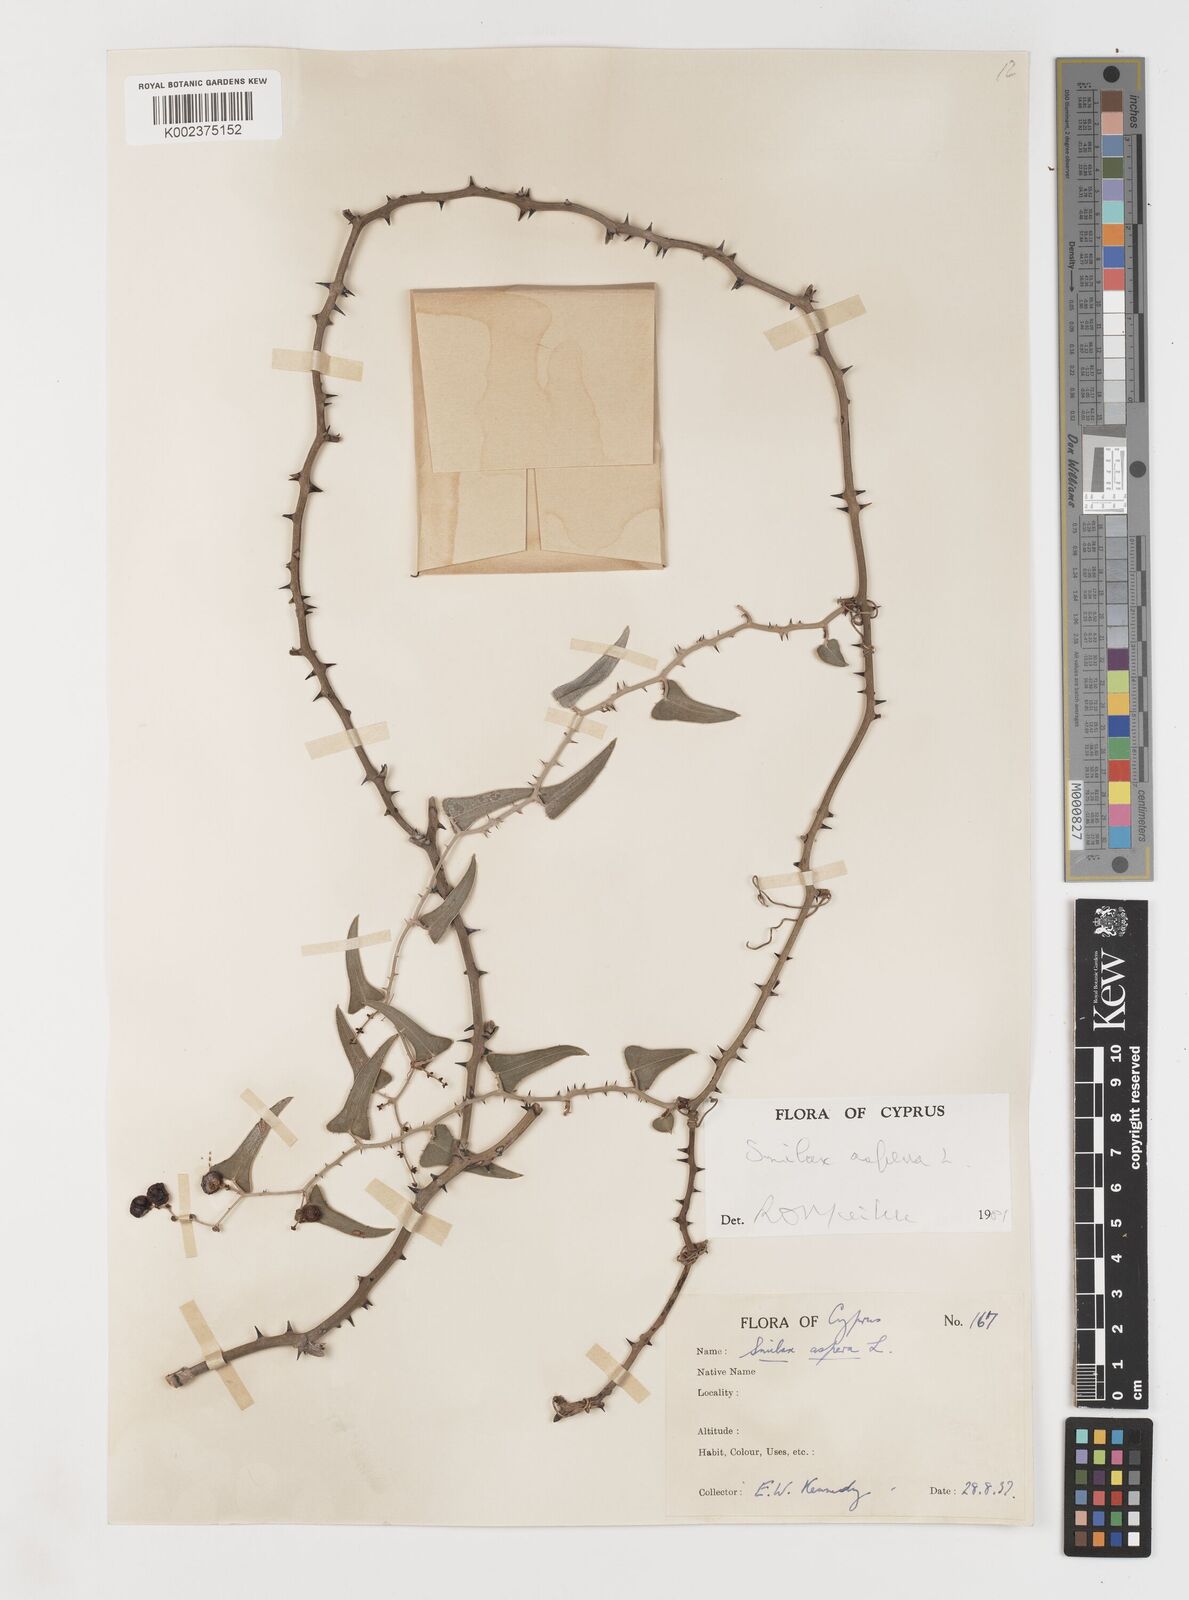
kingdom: Plantae
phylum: Tracheophyta
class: Liliopsida
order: Liliales
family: Smilacaceae
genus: Smilax
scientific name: Smilax aspera
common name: Common smilax
